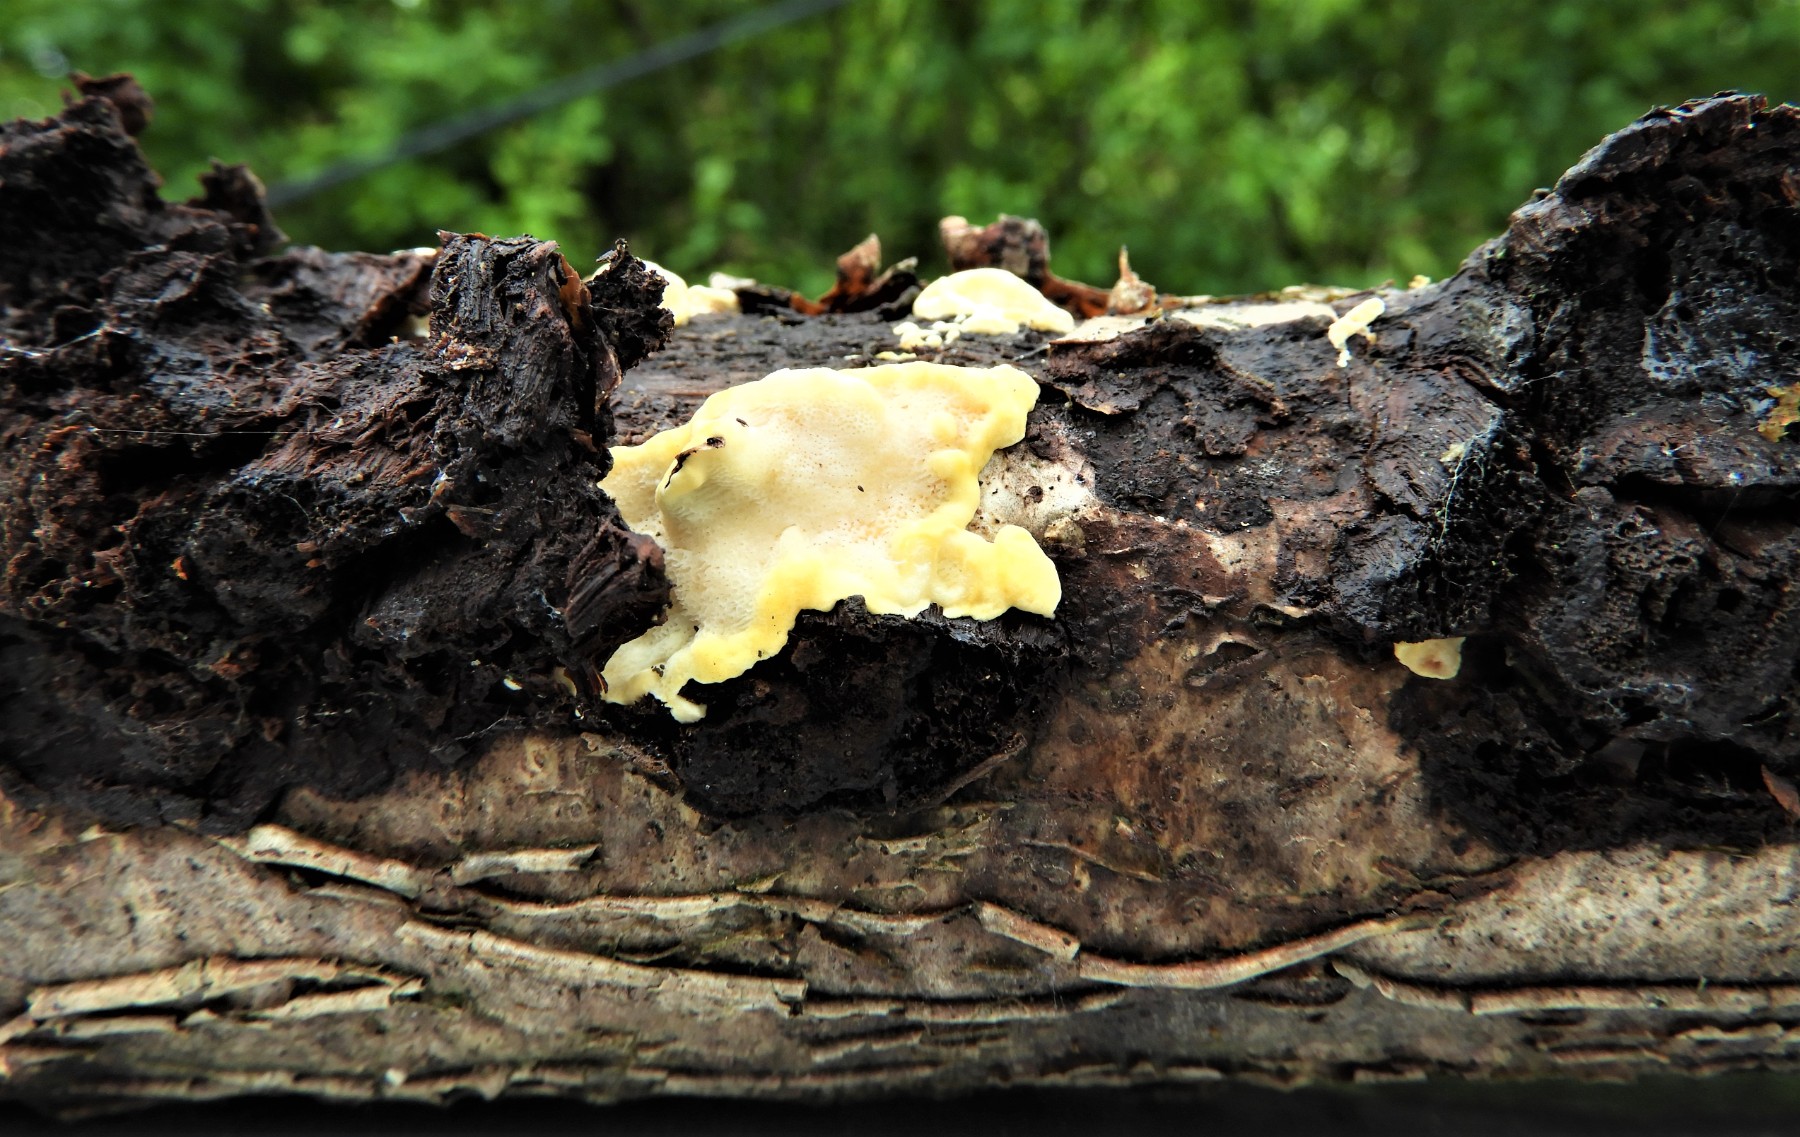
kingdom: Fungi
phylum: Basidiomycota
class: Agaricomycetes
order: Polyporales
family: Steccherinaceae
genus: Antrodiella
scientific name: Antrodiella serpula
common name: gulrandet elastikporesvamp
